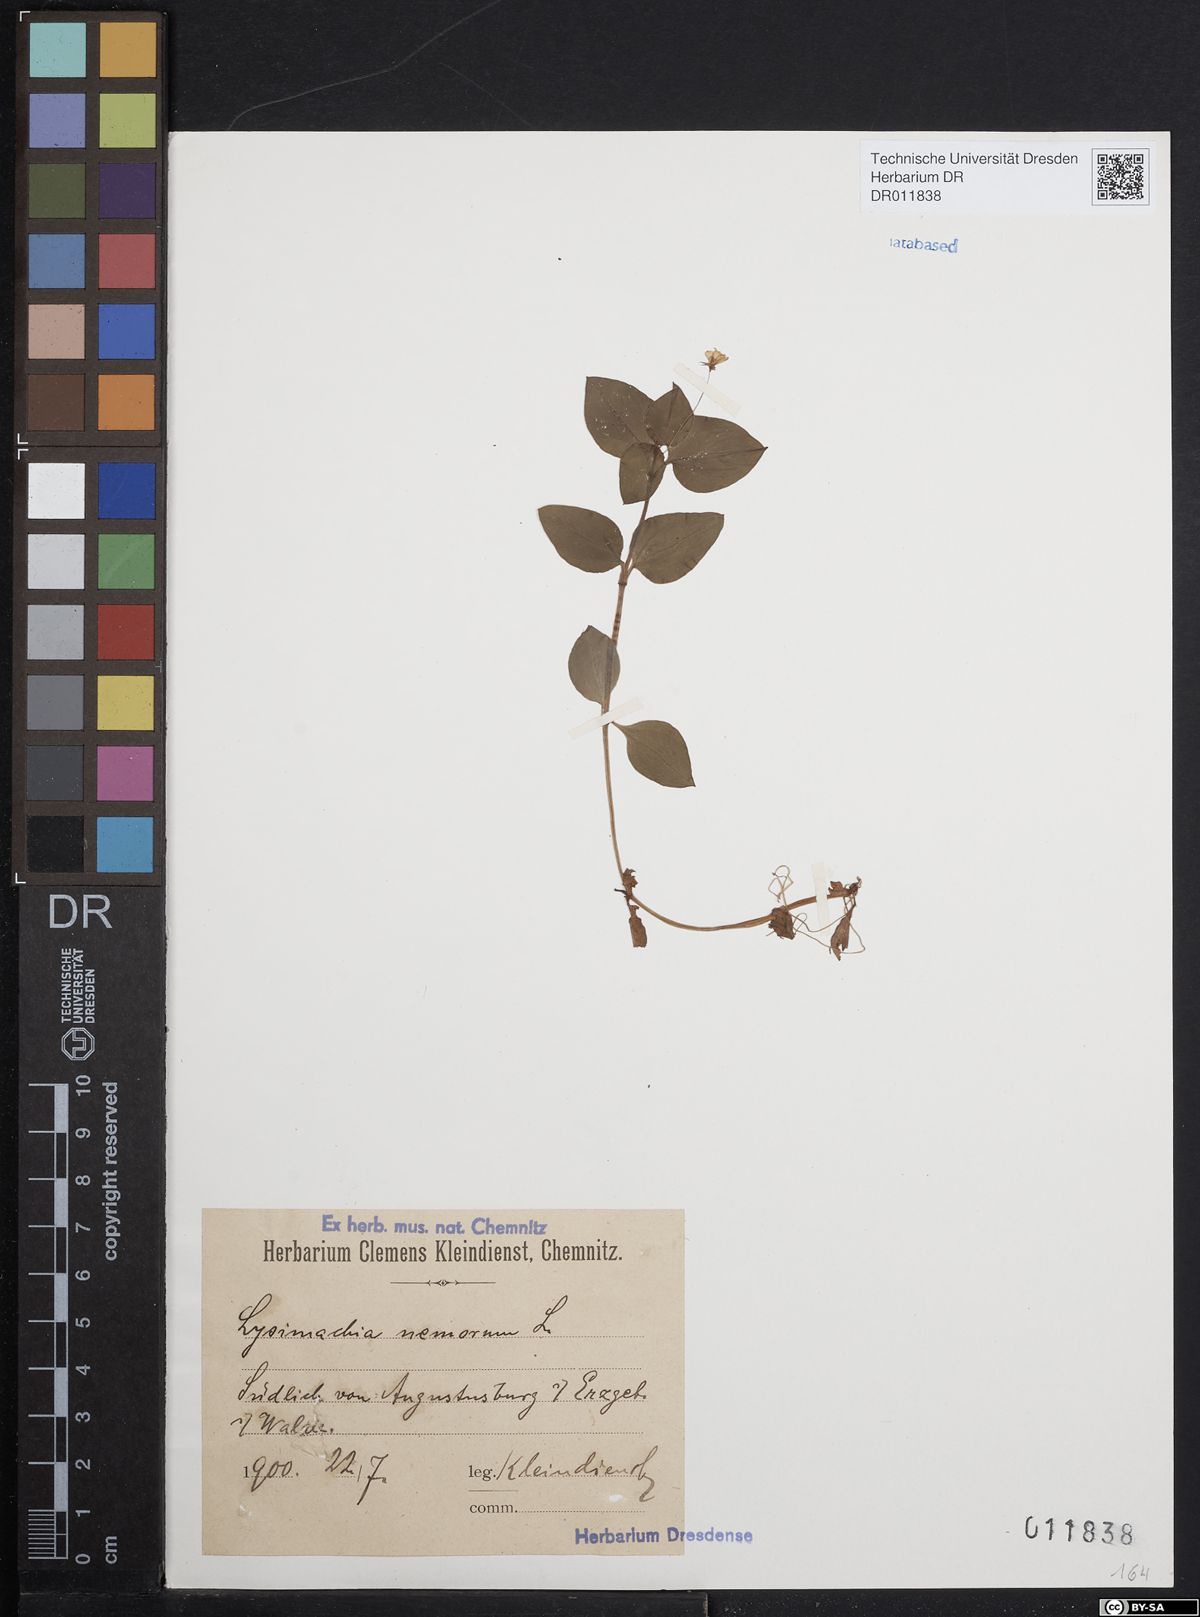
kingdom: Plantae
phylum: Tracheophyta
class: Magnoliopsida
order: Ericales
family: Primulaceae
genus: Lysimachia
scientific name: Lysimachia nemorum
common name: Yellow pimpernel
